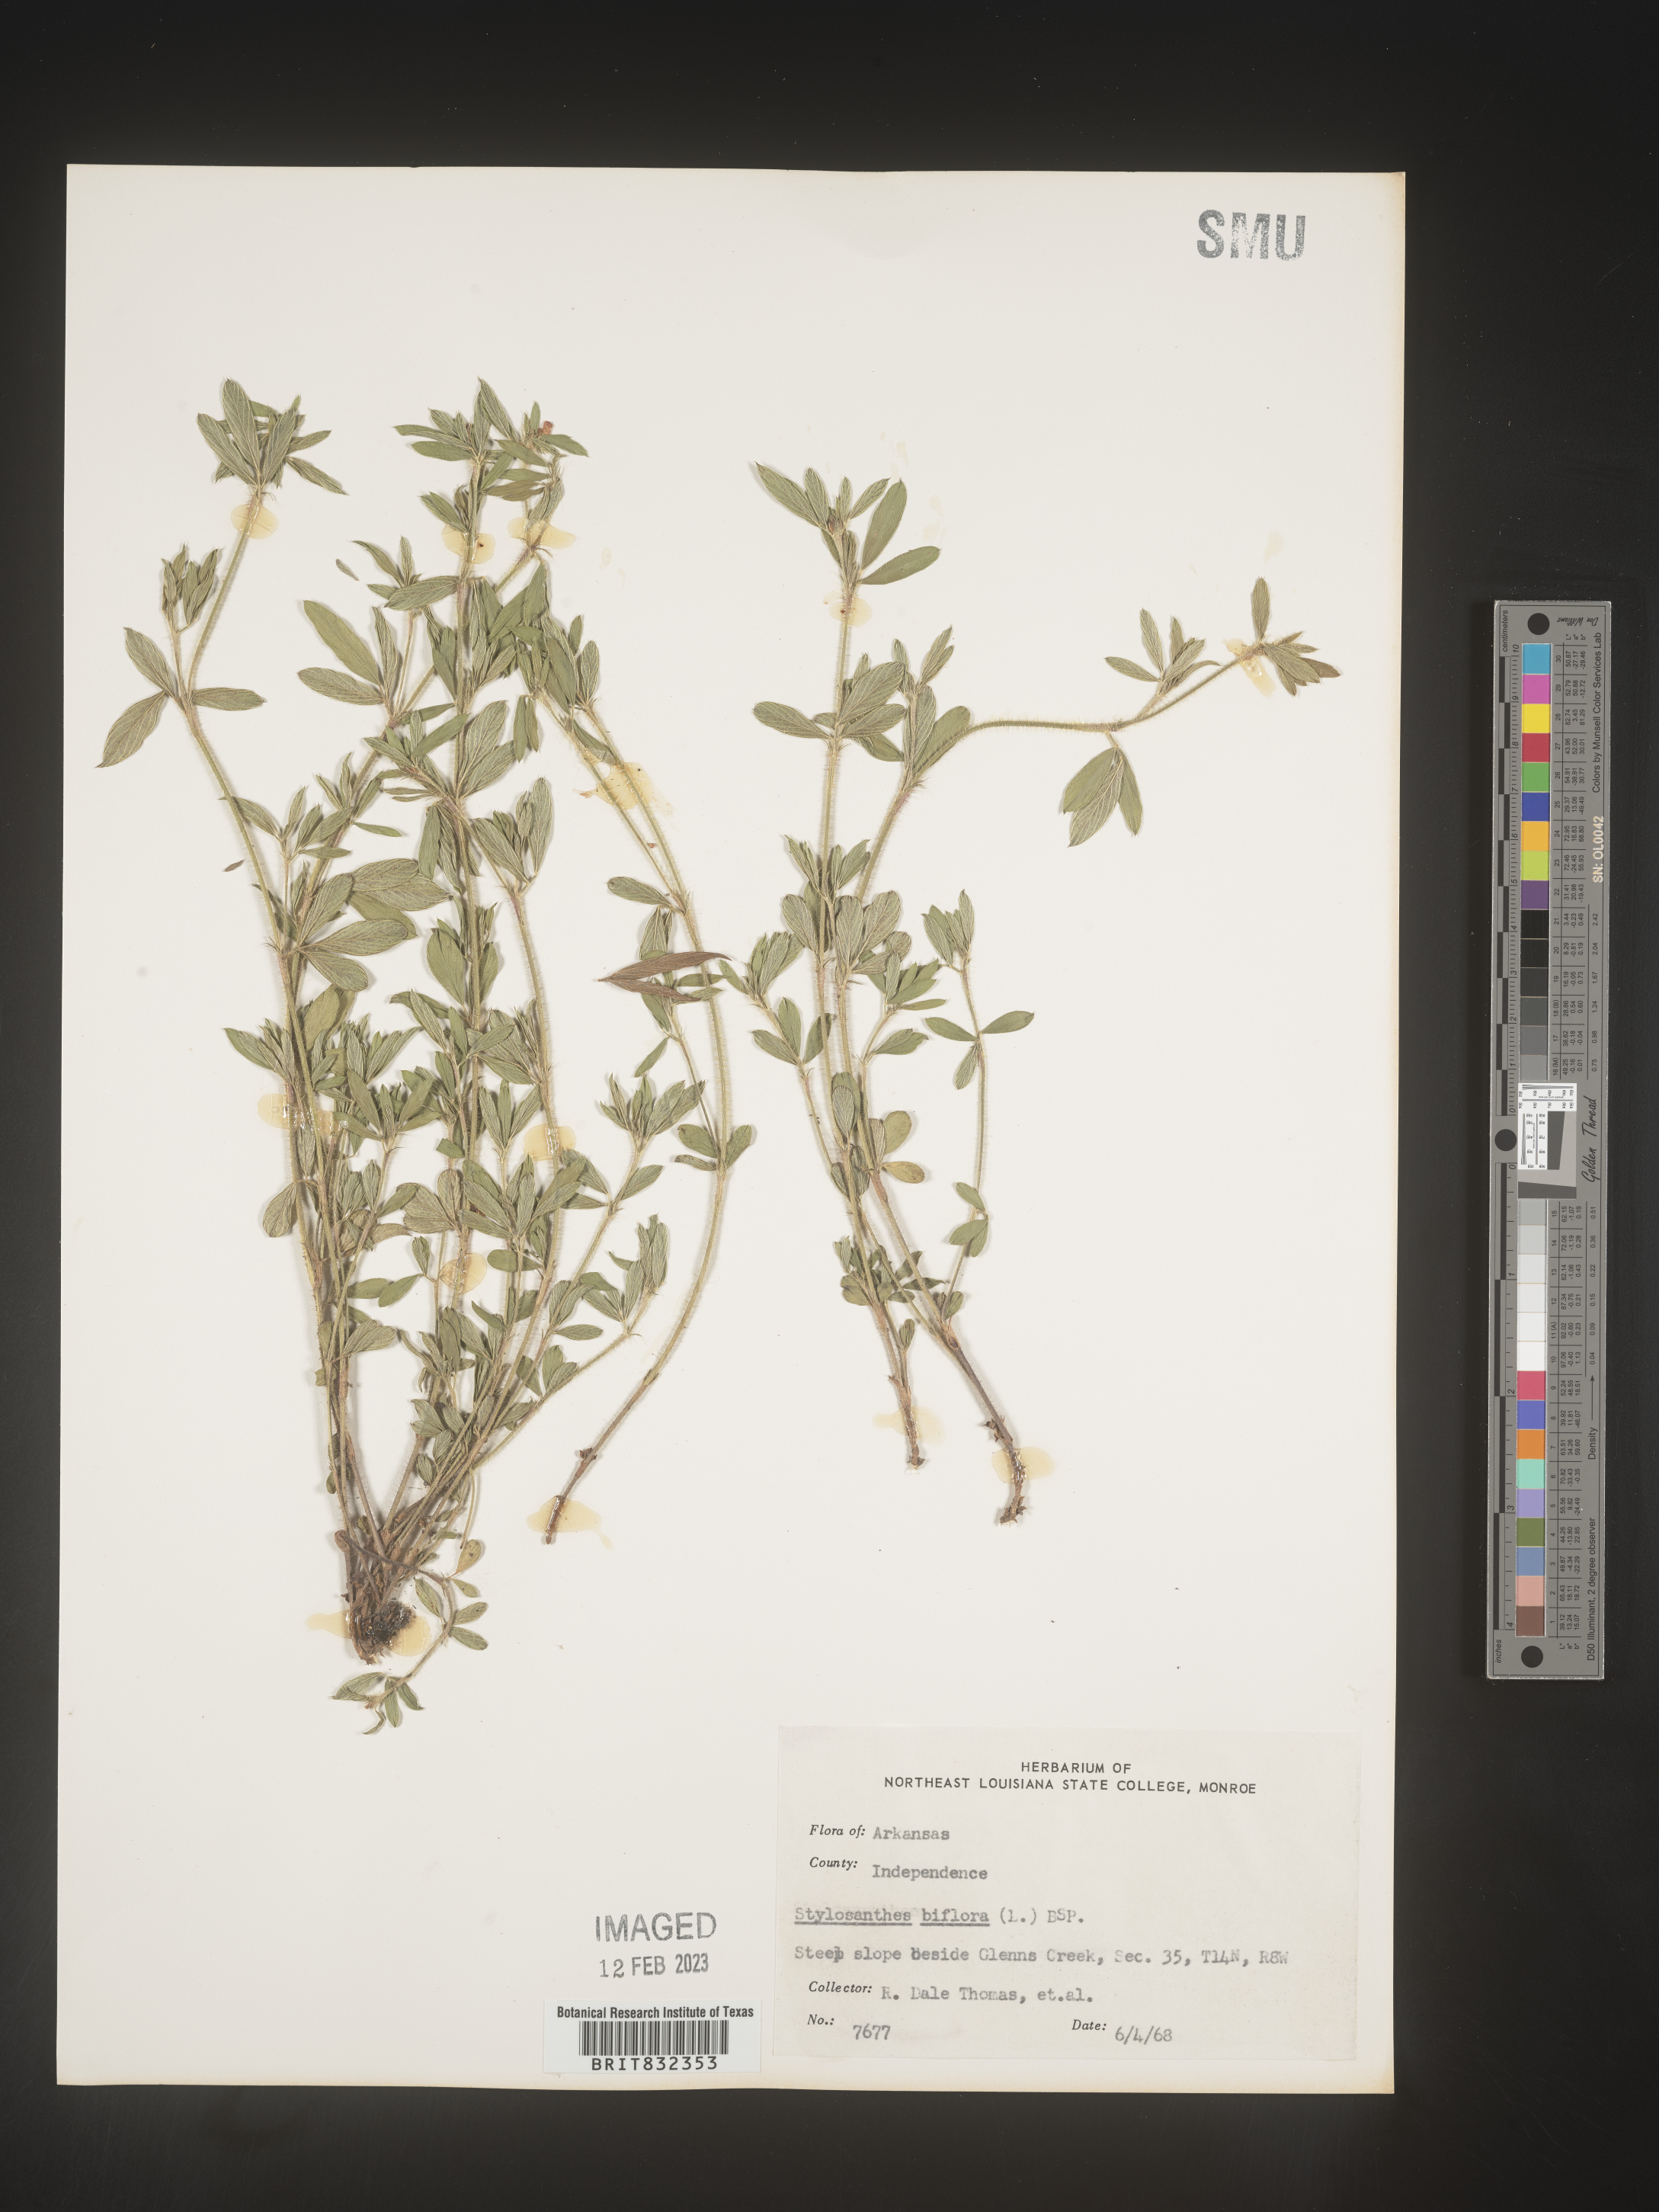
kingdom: Plantae
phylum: Tracheophyta
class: Magnoliopsida
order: Fabales
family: Fabaceae
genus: Stylosanthes
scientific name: Stylosanthes biflora
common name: Two-flower pencil-flower
